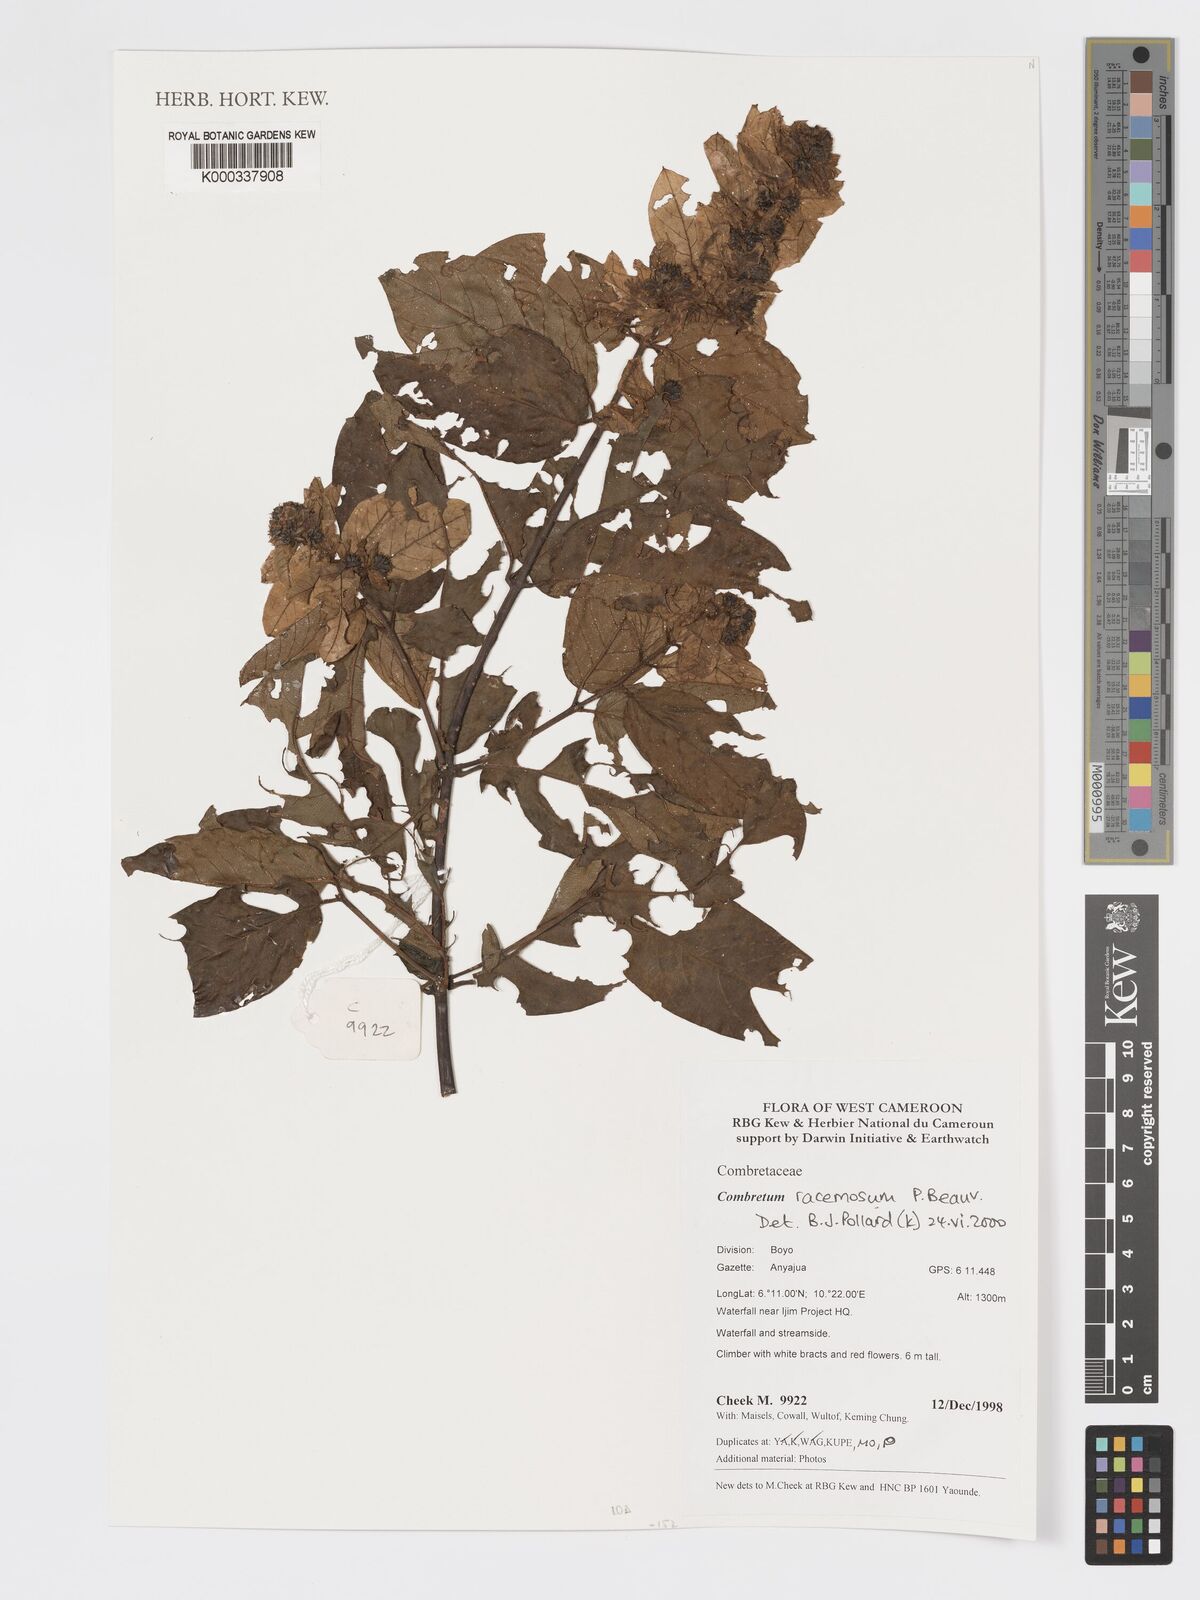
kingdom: Plantae
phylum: Tracheophyta
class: Magnoliopsida
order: Myrtales
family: Combretaceae
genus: Combretum
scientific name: Combretum racemosum
